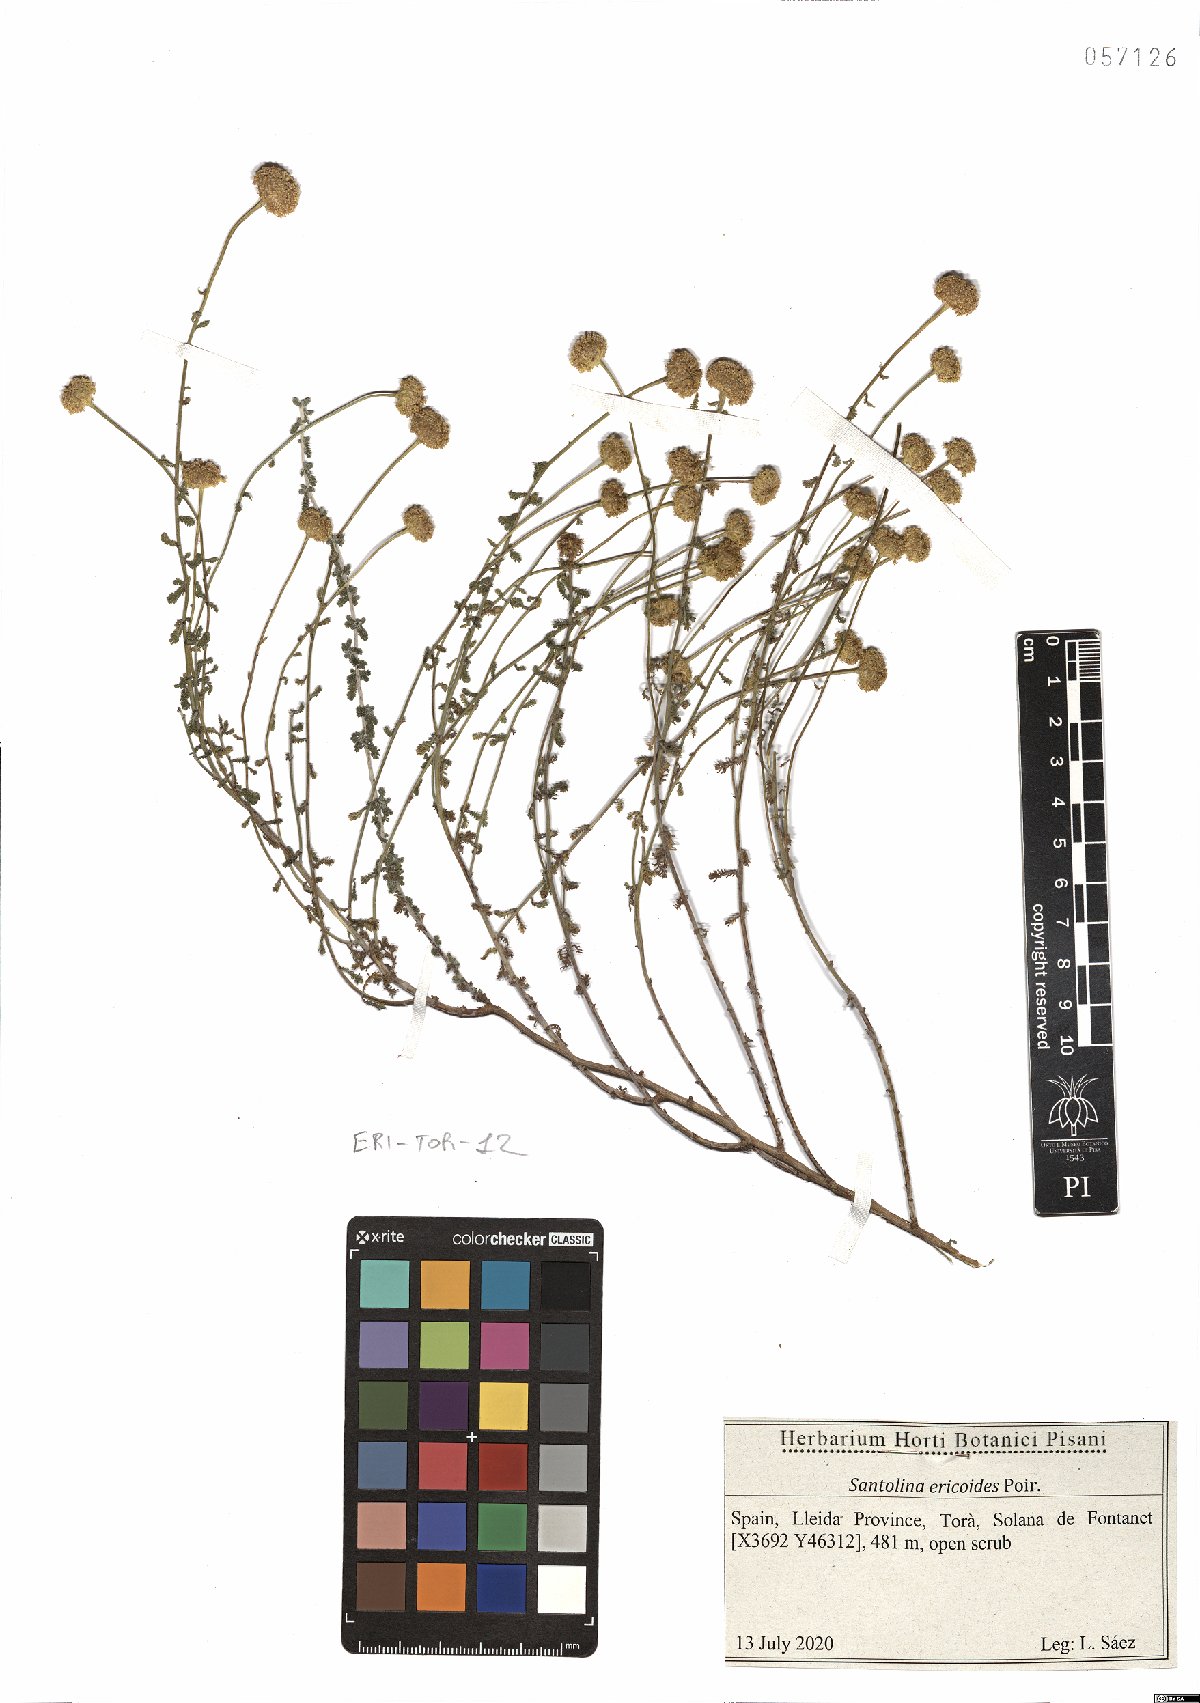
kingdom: Plantae
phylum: Tracheophyta
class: Magnoliopsida
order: Asterales
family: Asteraceae
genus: Santolina
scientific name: Santolina ericoides
